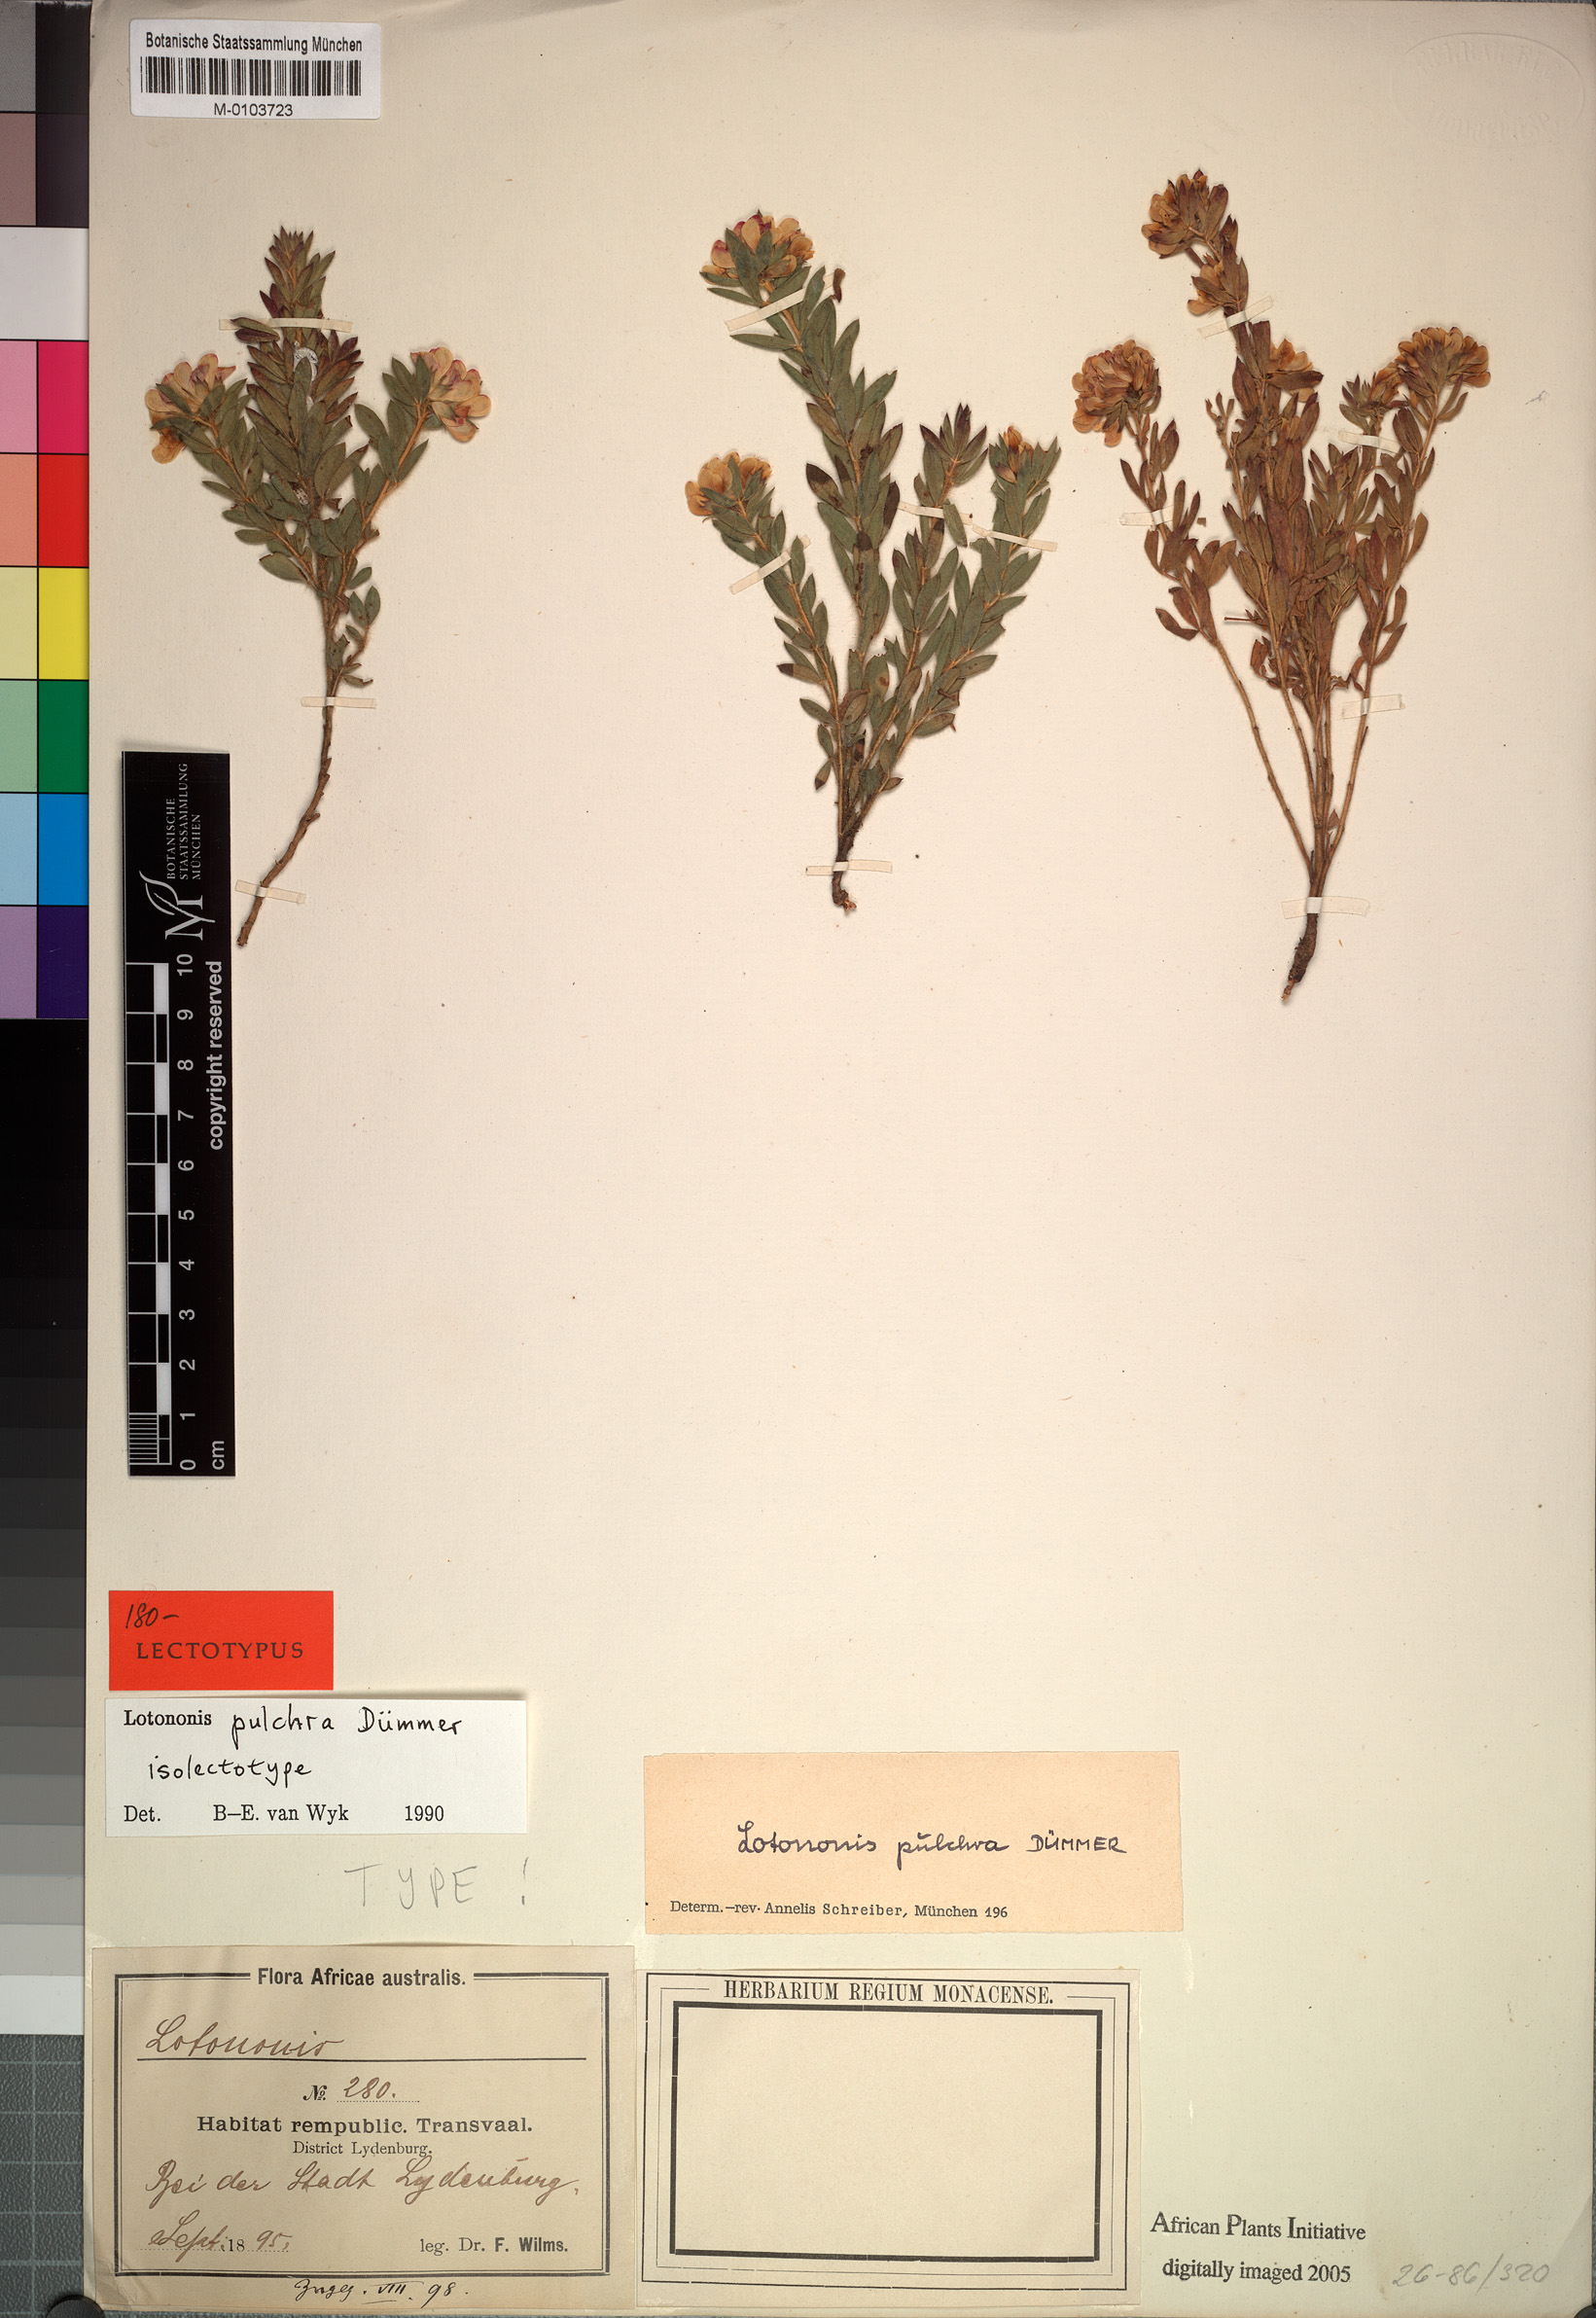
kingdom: Plantae
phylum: Tracheophyta
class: Magnoliopsida
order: Fabales
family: Fabaceae
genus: Leobordea
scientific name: Leobordea pulchra
